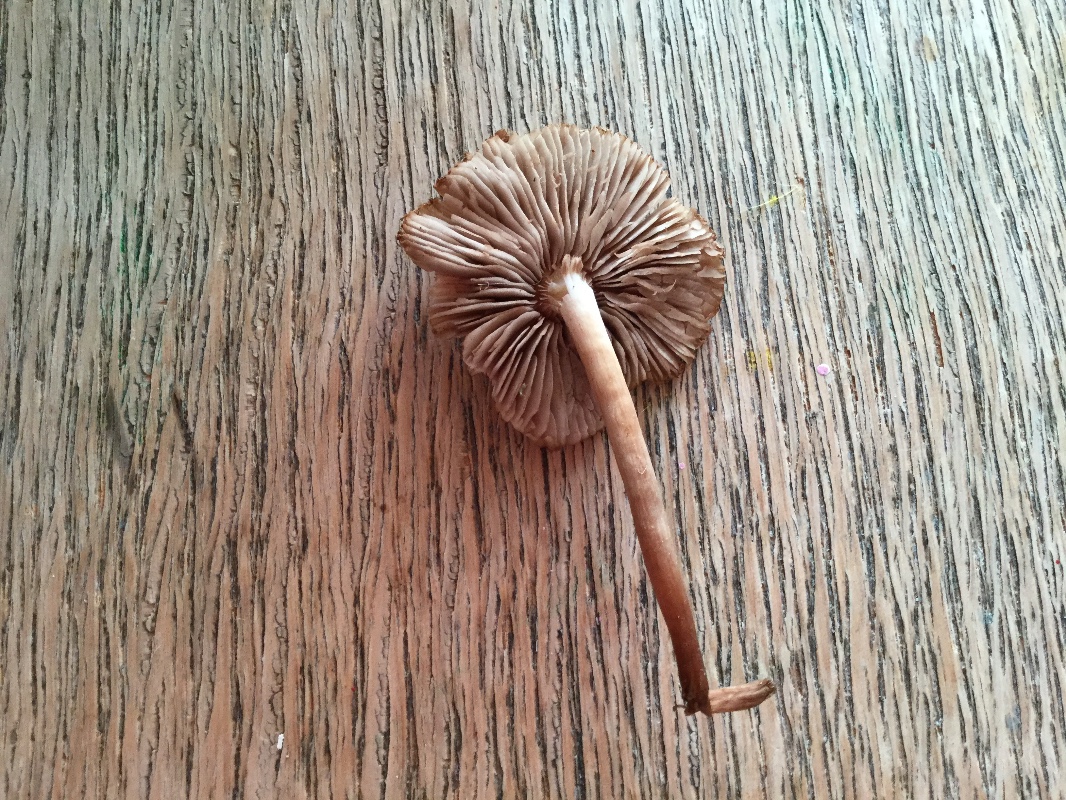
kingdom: Fungi
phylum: Basidiomycota
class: Agaricomycetes
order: Agaricales
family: Inocybaceae
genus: Inocybe
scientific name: Inocybe curvipes
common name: plæne-trævlhat
